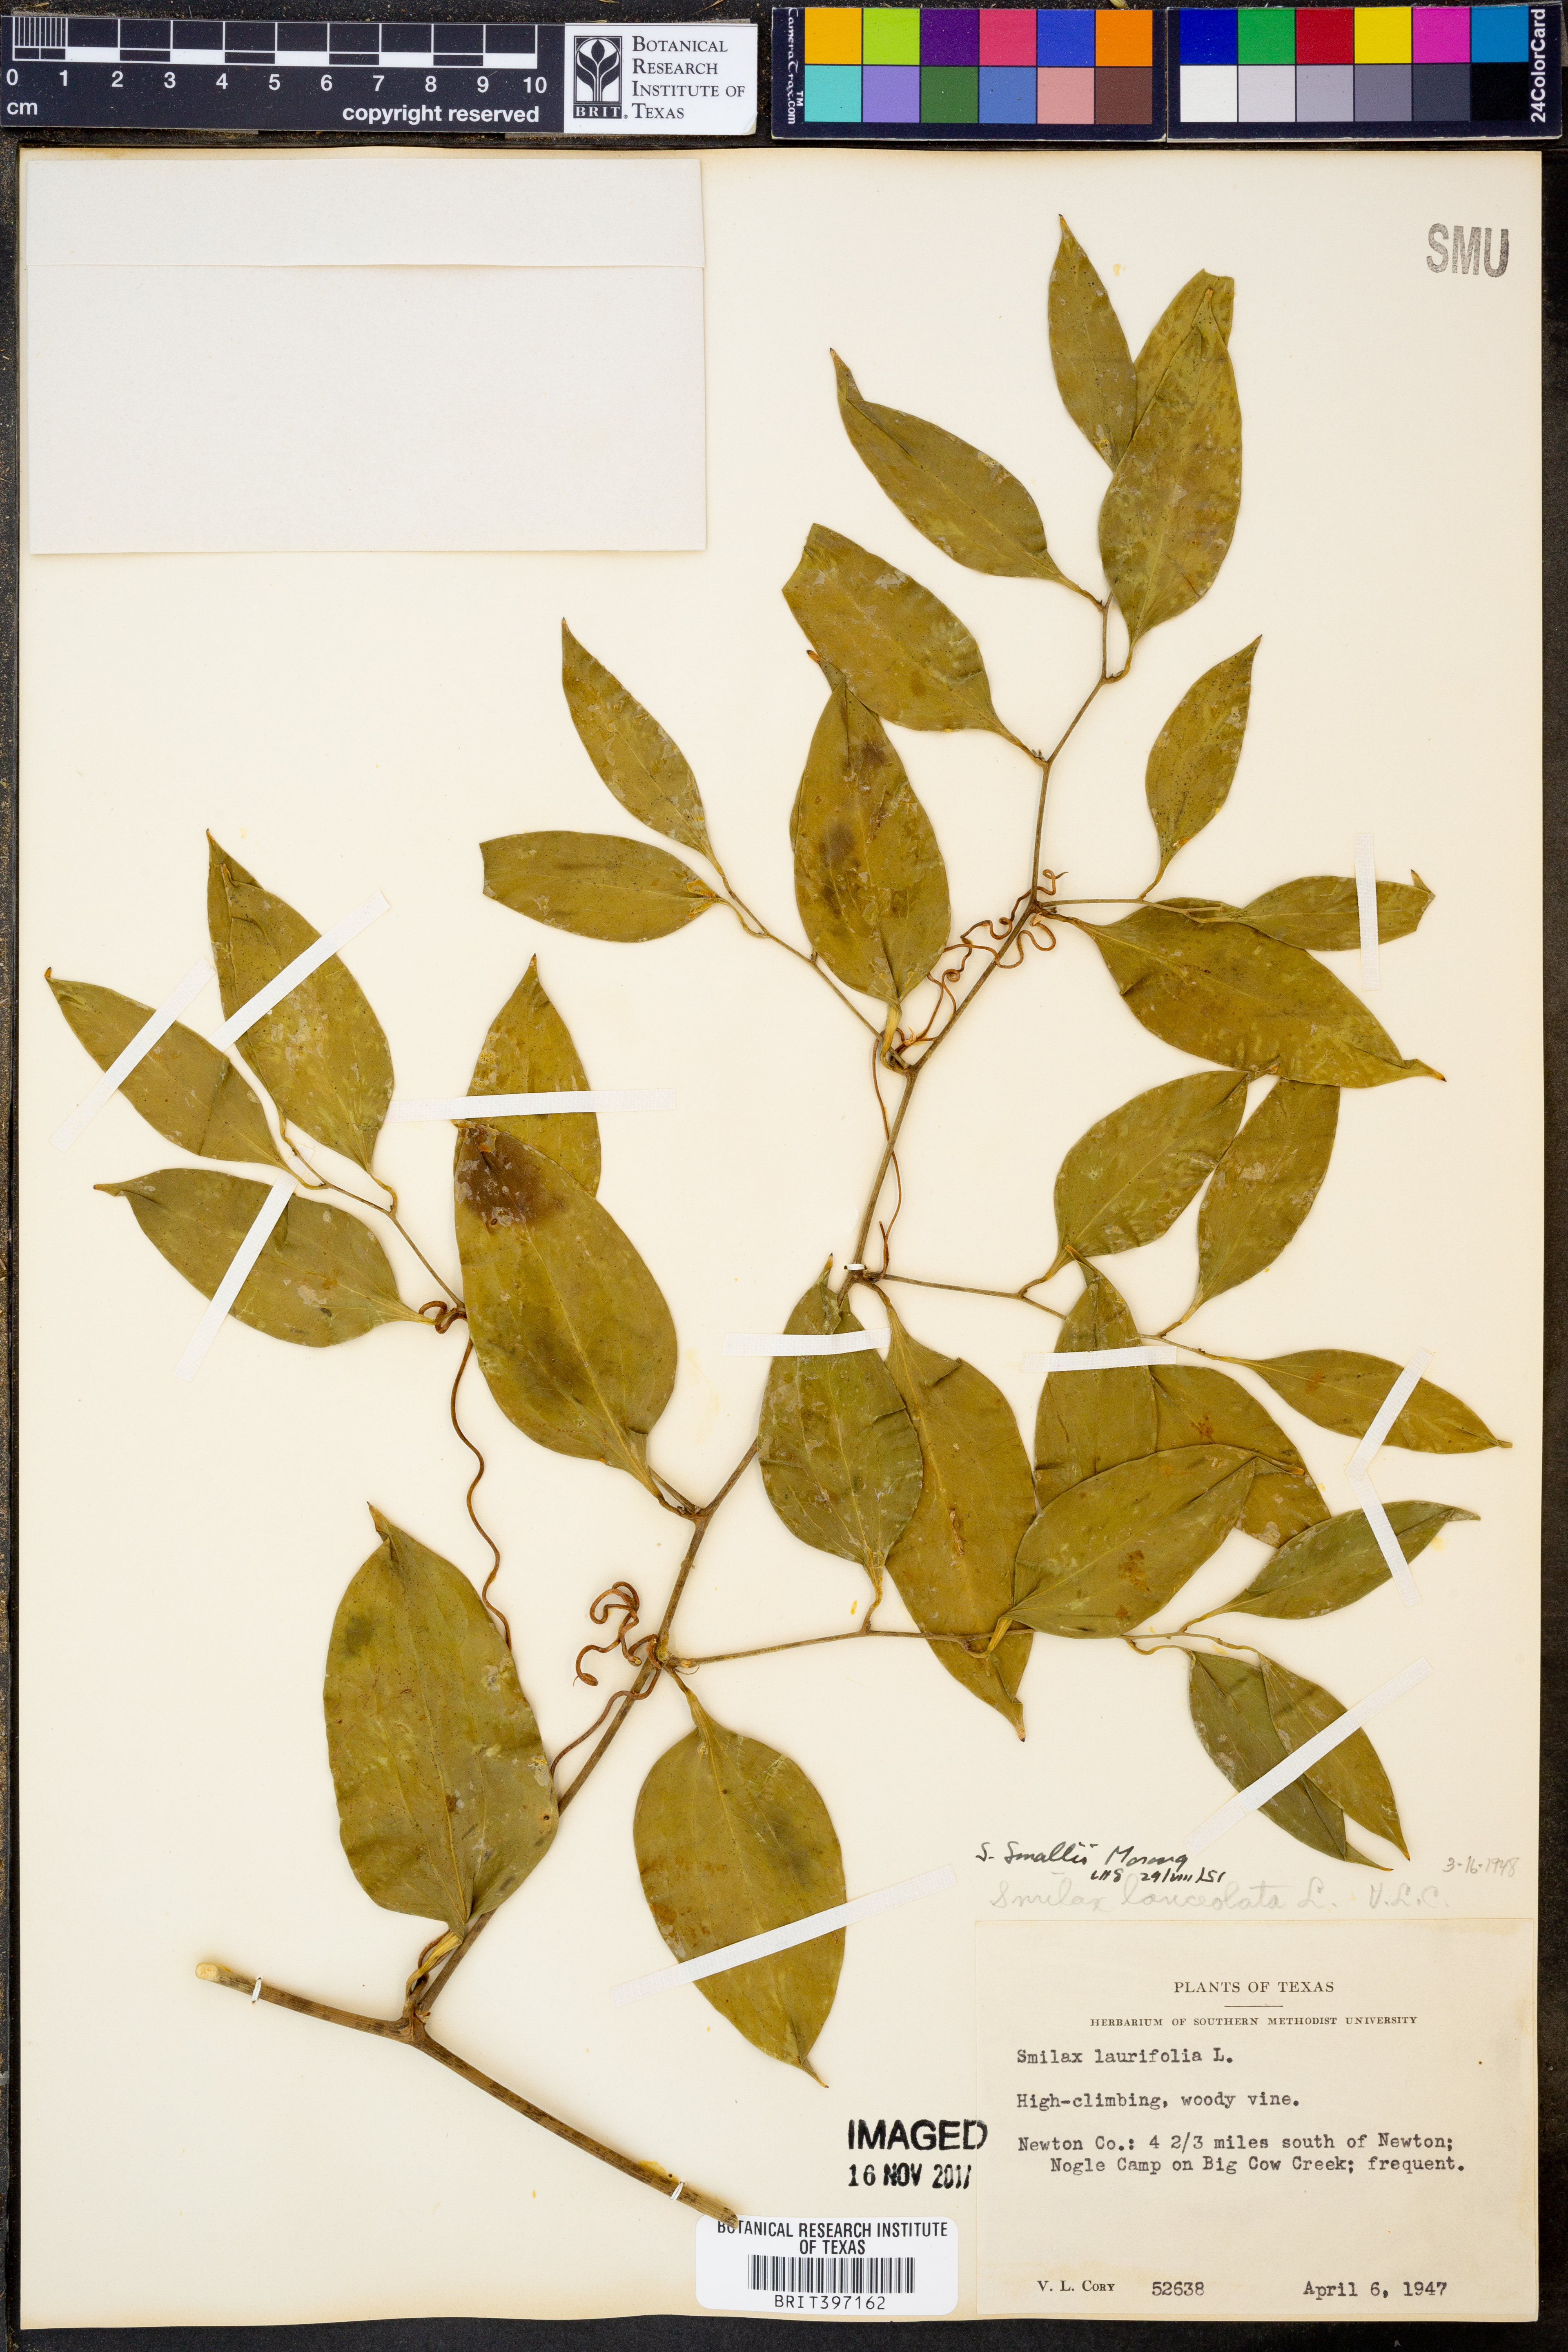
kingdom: Plantae
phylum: Tracheophyta
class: Liliopsida
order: Liliales
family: Smilacaceae
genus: Smilax
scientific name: Smilax maritima
